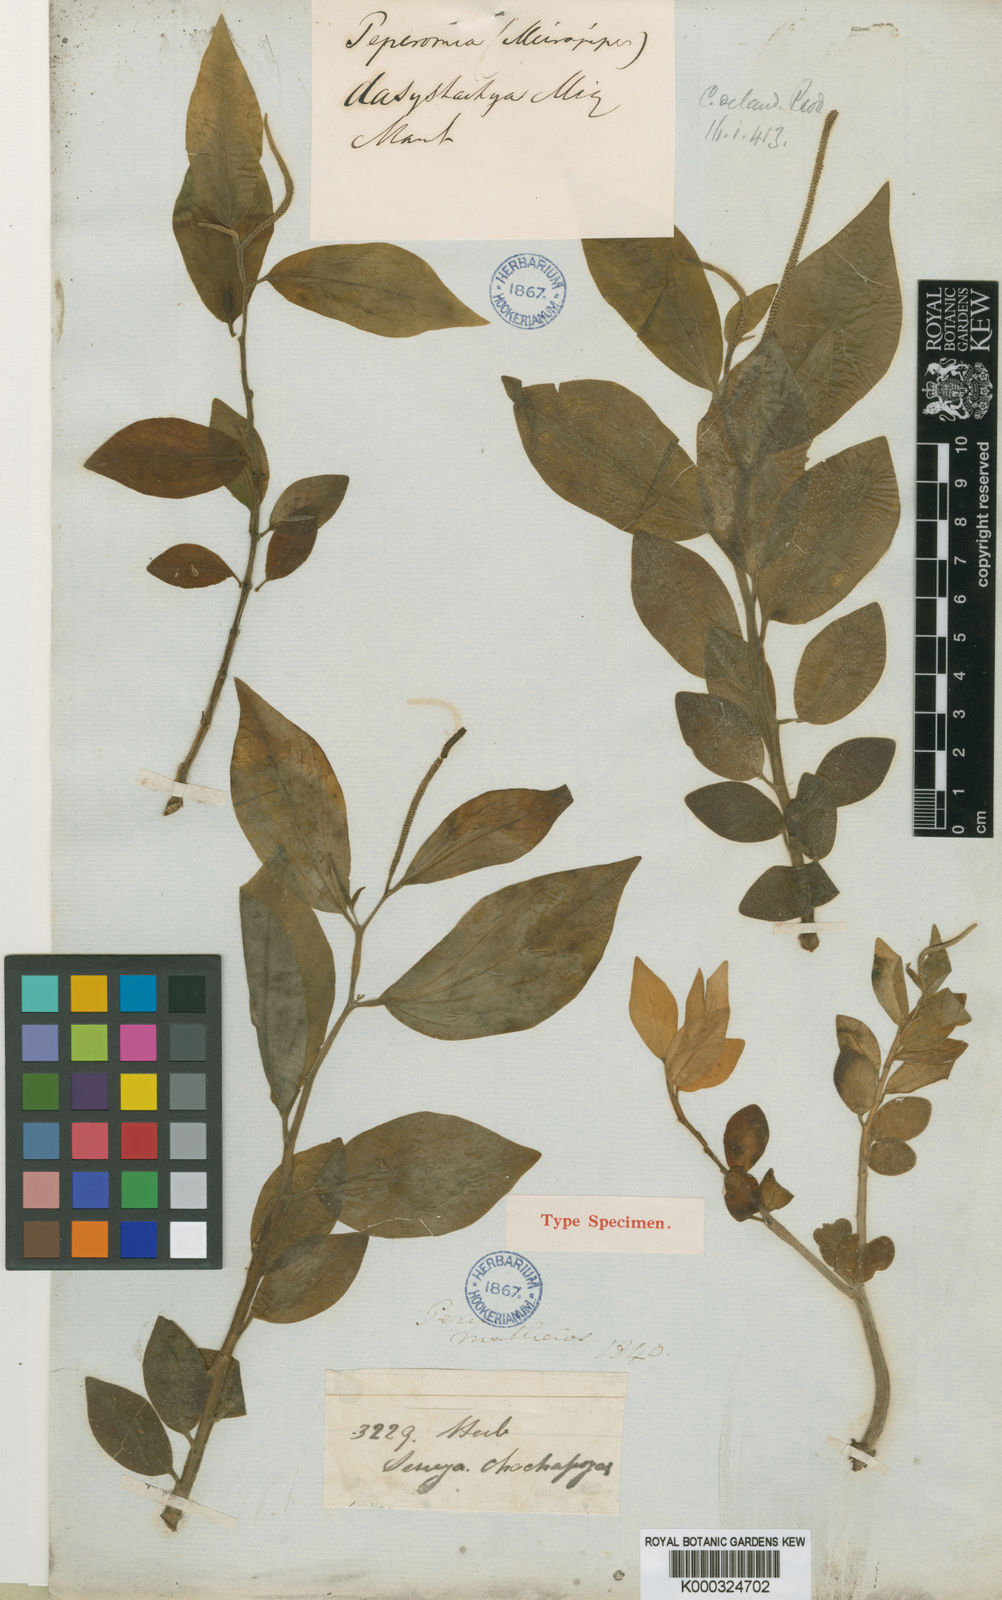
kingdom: Plantae
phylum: Tracheophyta
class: Magnoliopsida
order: Piperales
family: Piperaceae
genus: Peperomia
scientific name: Peperomia dasystachya
